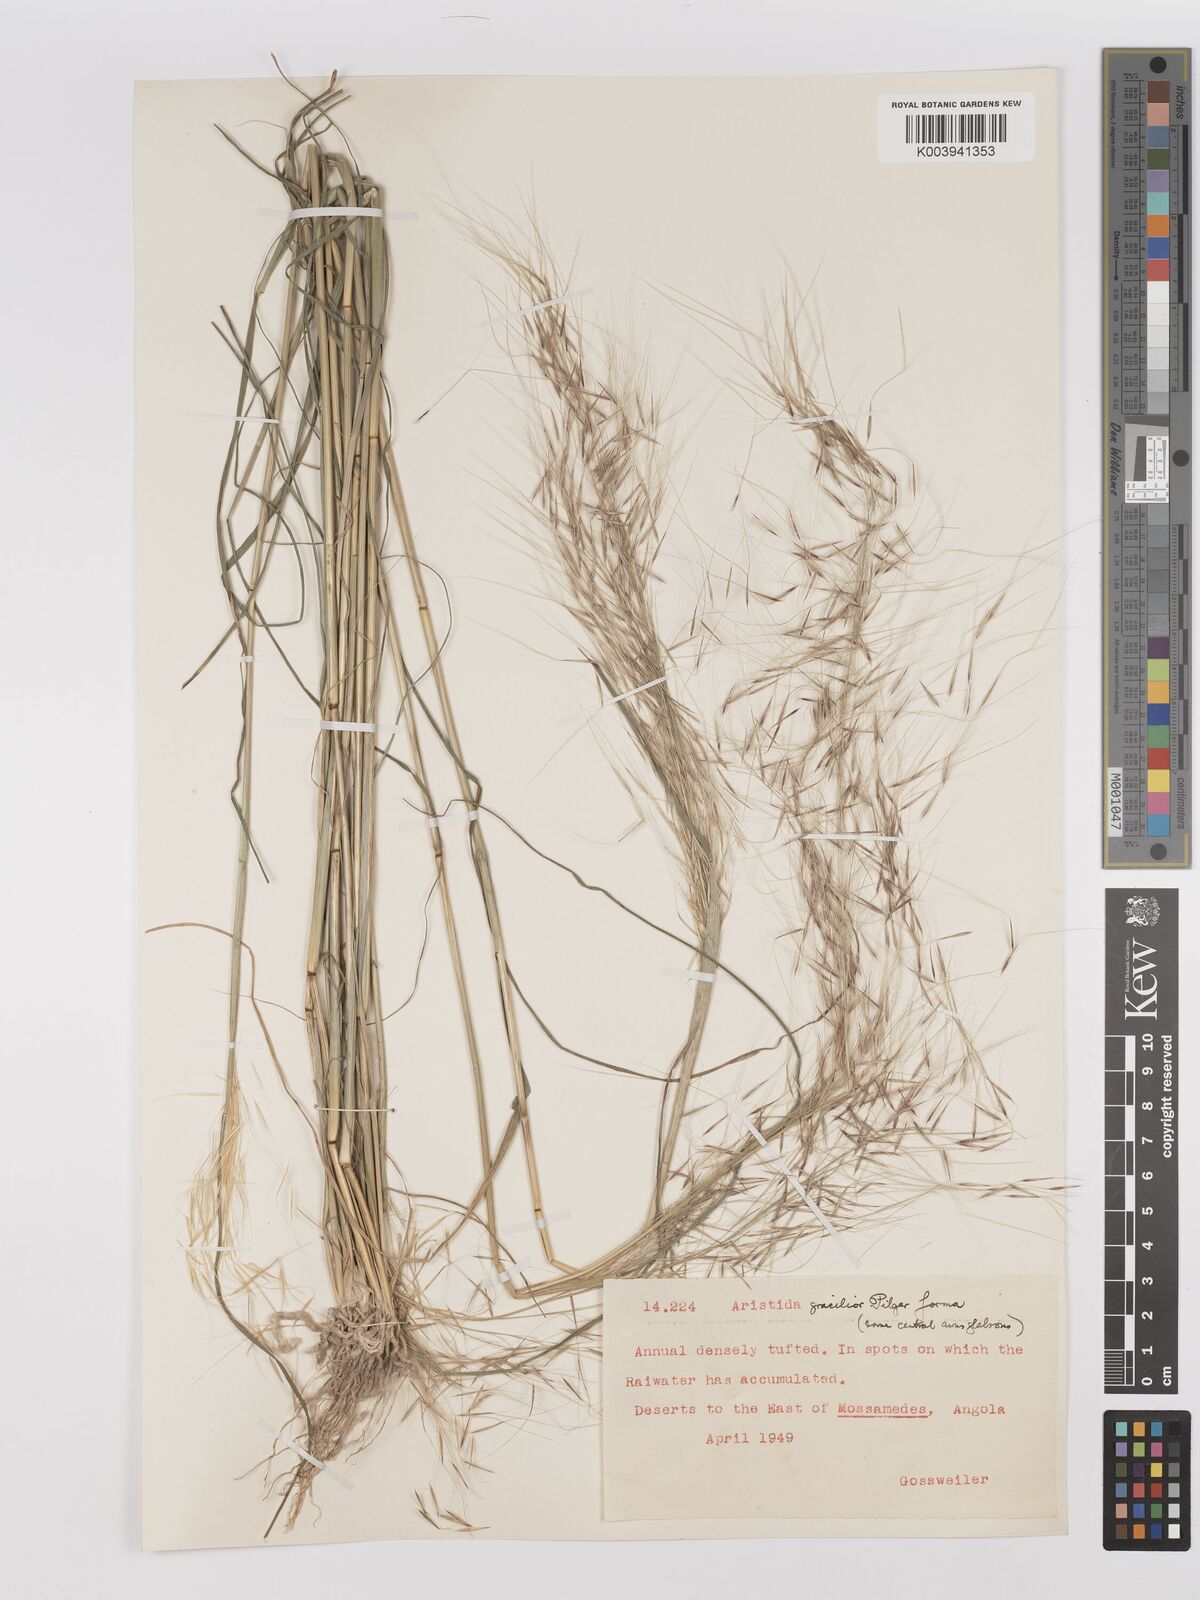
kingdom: Plantae
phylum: Tracheophyta
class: Liliopsida
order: Poales
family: Poaceae
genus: Stipagrostis
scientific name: Stipagrostis hirtigluma
